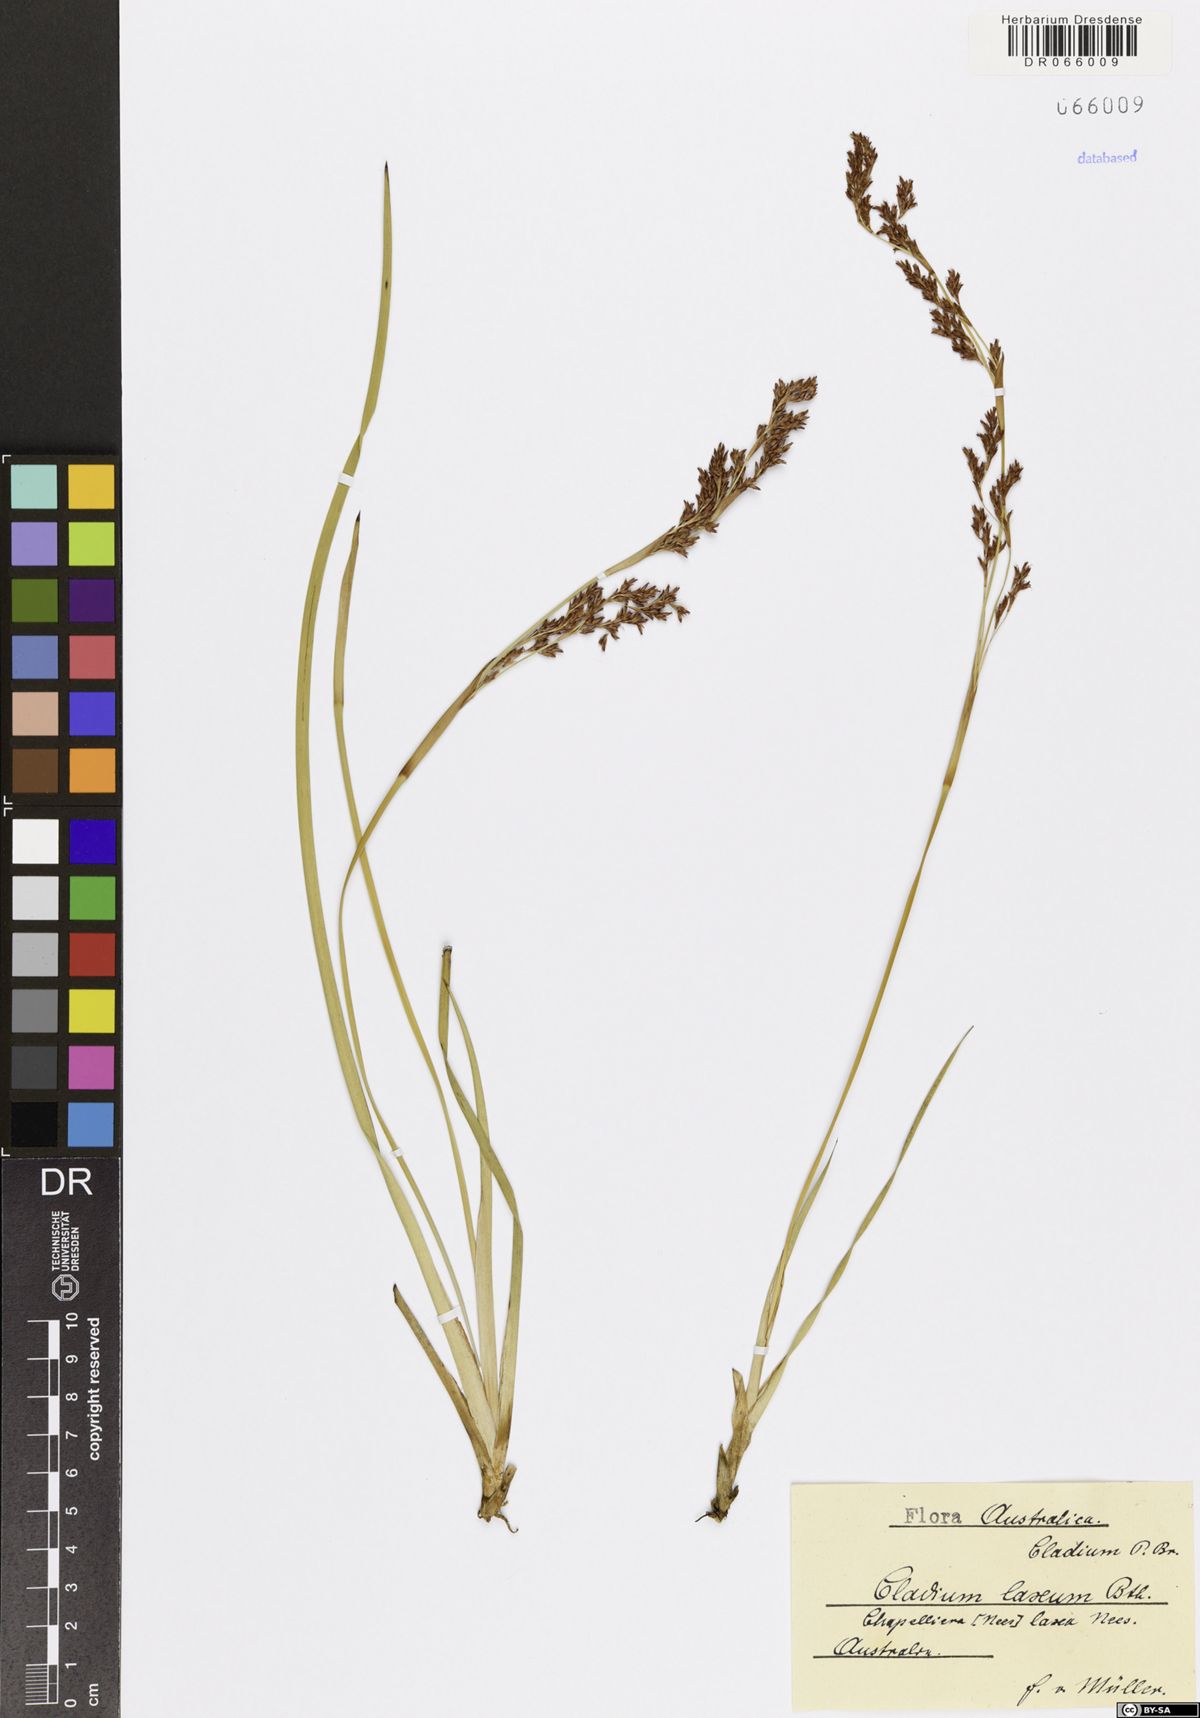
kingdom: Plantae
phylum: Tracheophyta
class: Liliopsida
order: Poales
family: Cyperaceae
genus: Machaerina
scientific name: Machaerina laxa
